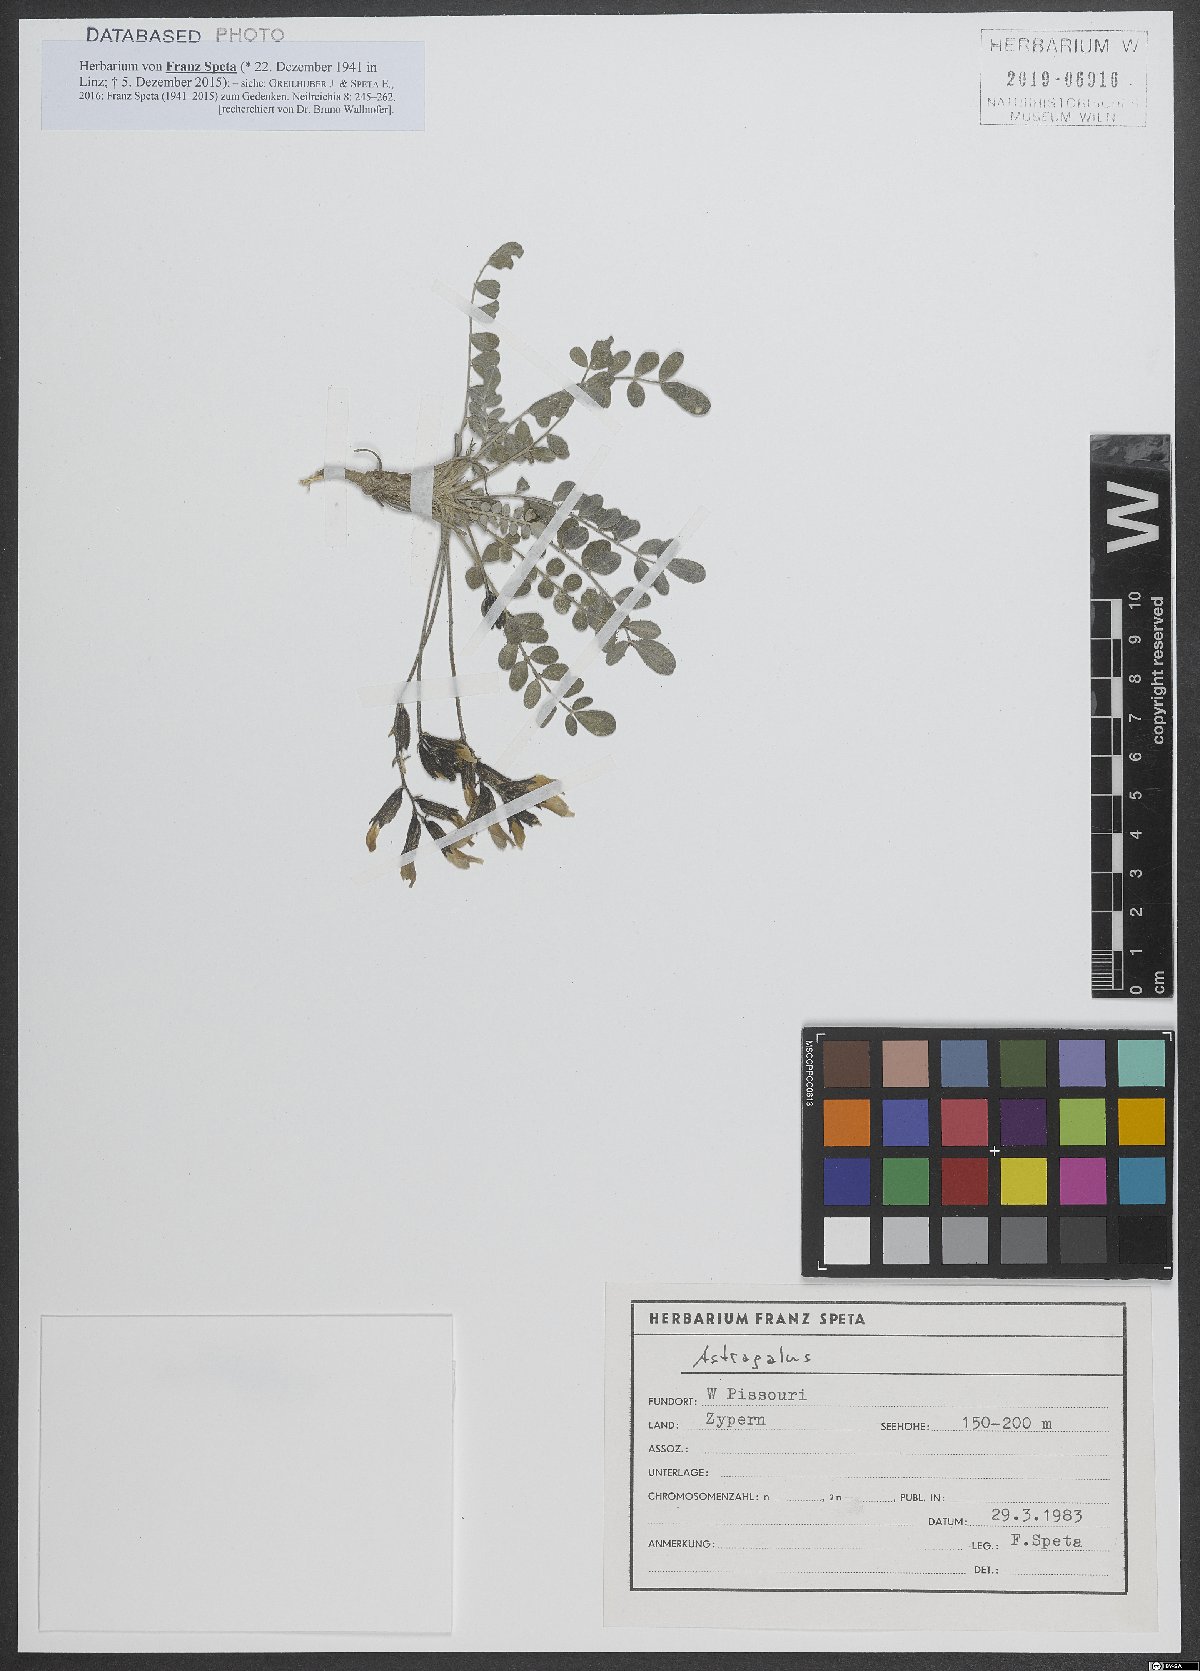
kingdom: Plantae
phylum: Tracheophyta
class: Magnoliopsida
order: Fabales
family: Fabaceae
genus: Astragalus
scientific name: Astragalus
